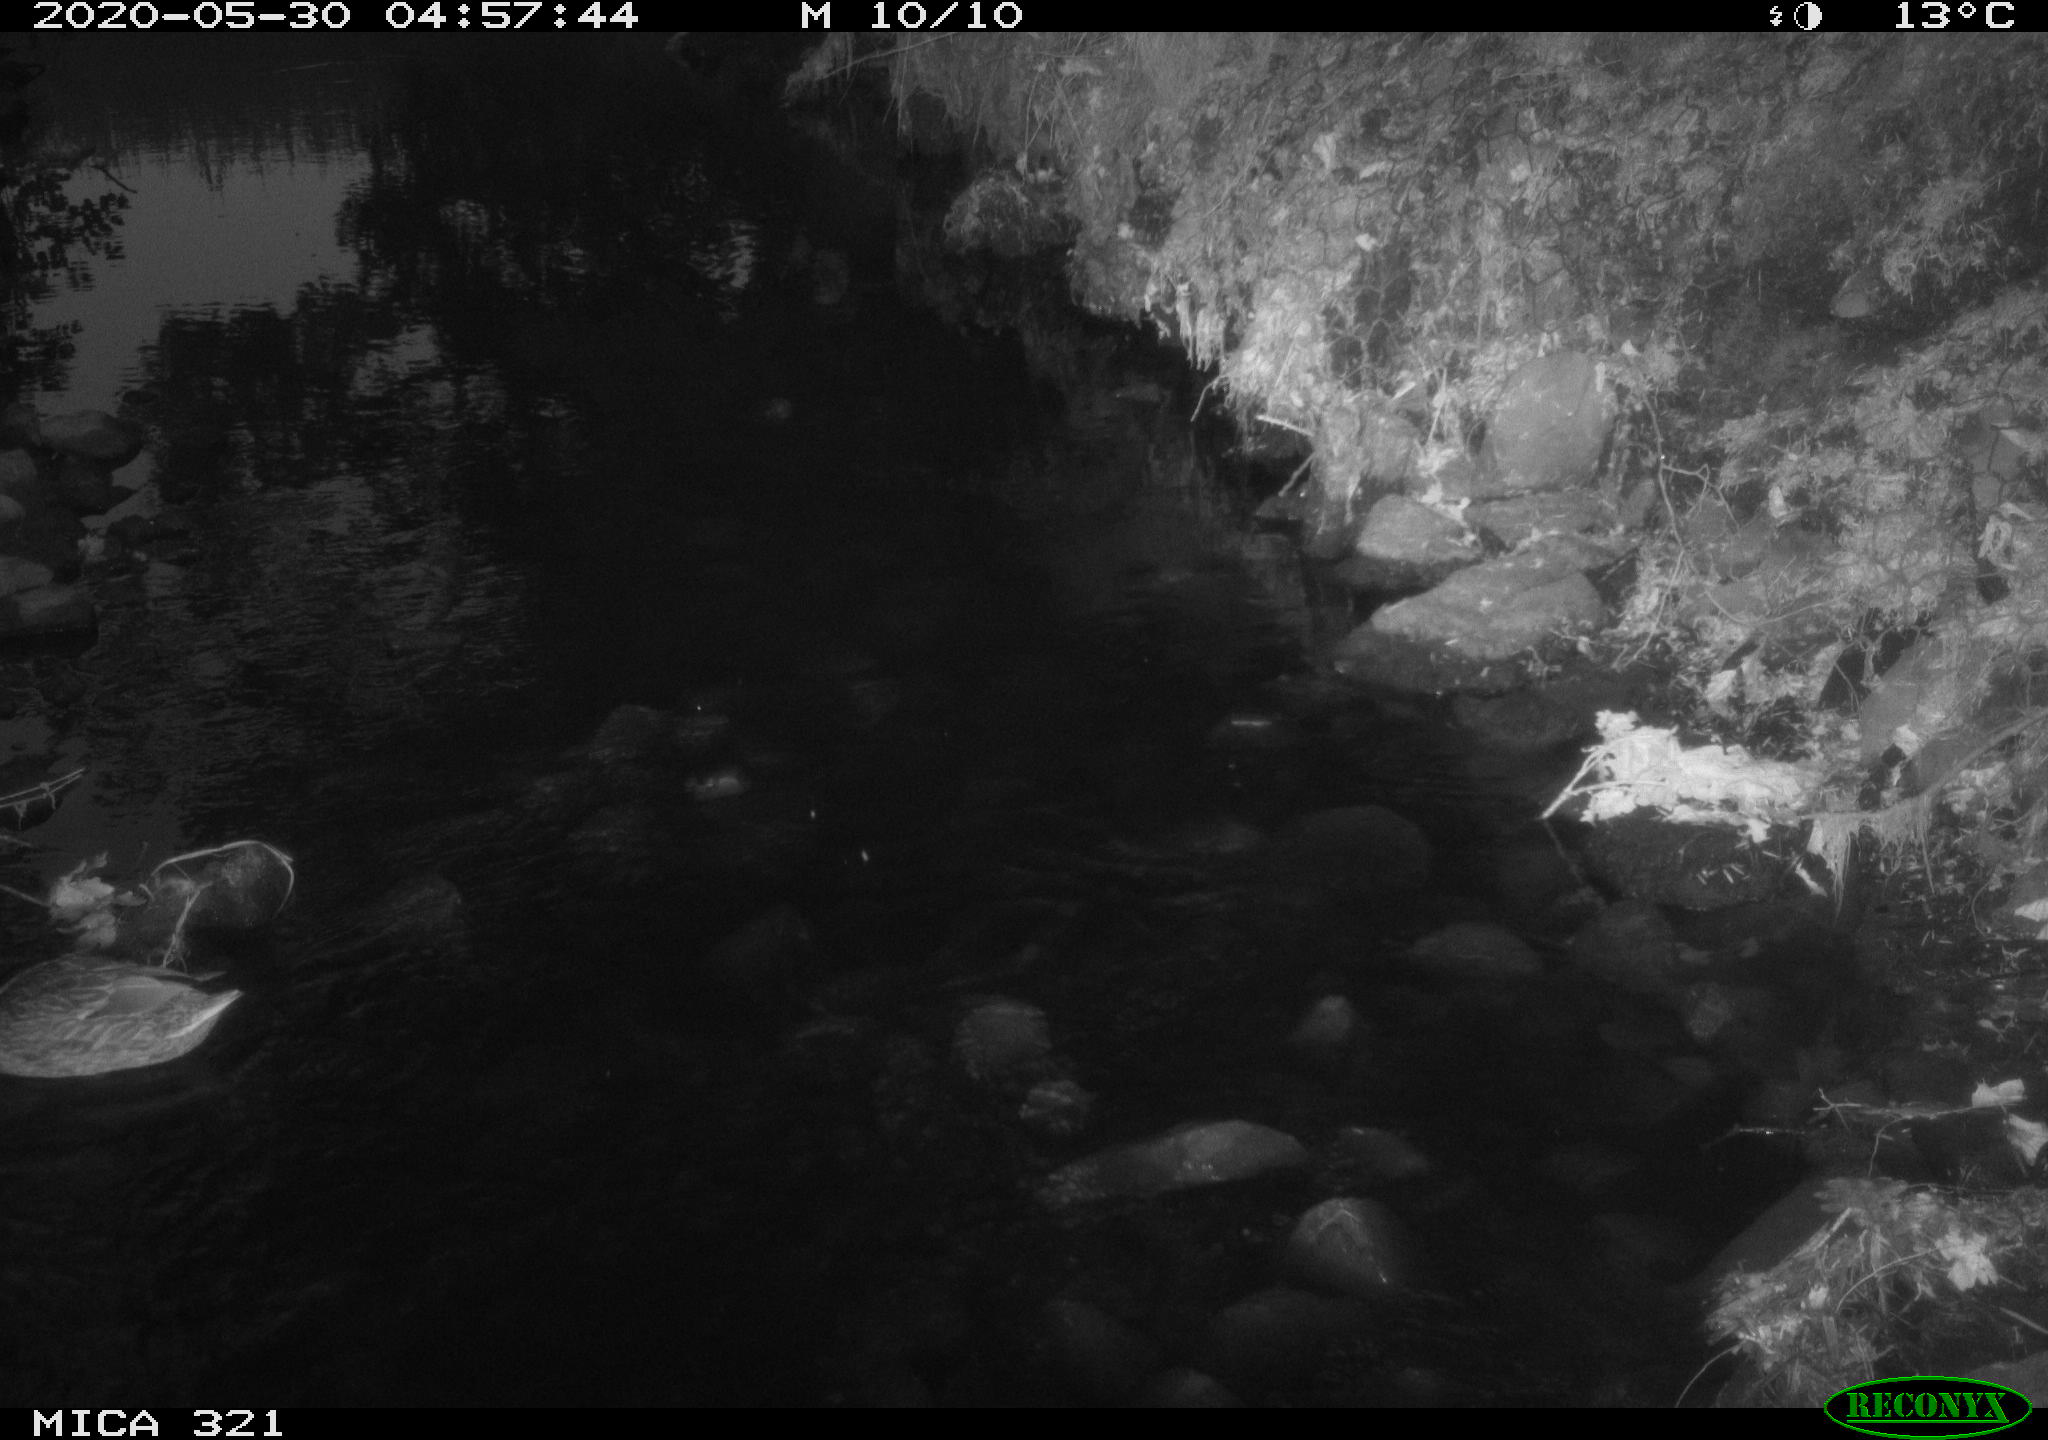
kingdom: Animalia
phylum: Chordata
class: Aves
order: Anseriformes
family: Anatidae
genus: Anas
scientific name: Anas platyrhynchos
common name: Mallard
